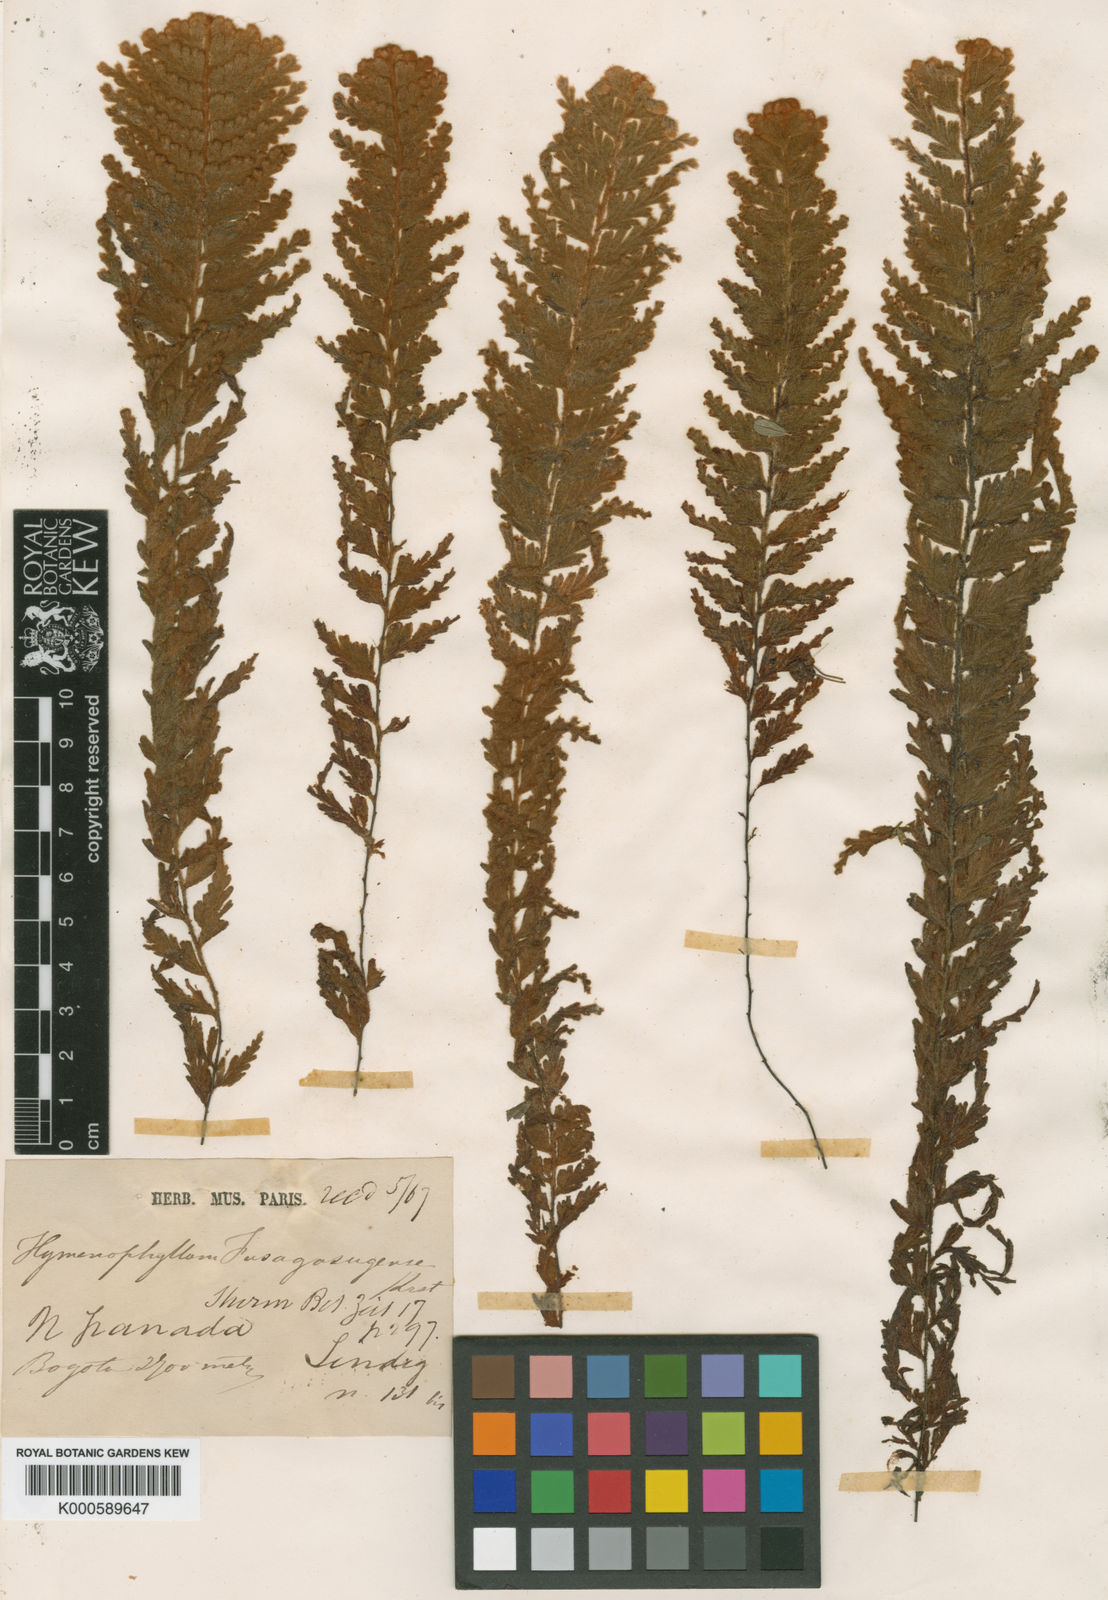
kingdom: Plantae
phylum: Tracheophyta
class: Polypodiopsida
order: Hymenophyllales
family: Hymenophyllaceae
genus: Hymenophyllum
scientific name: Hymenophyllum tomentosum
